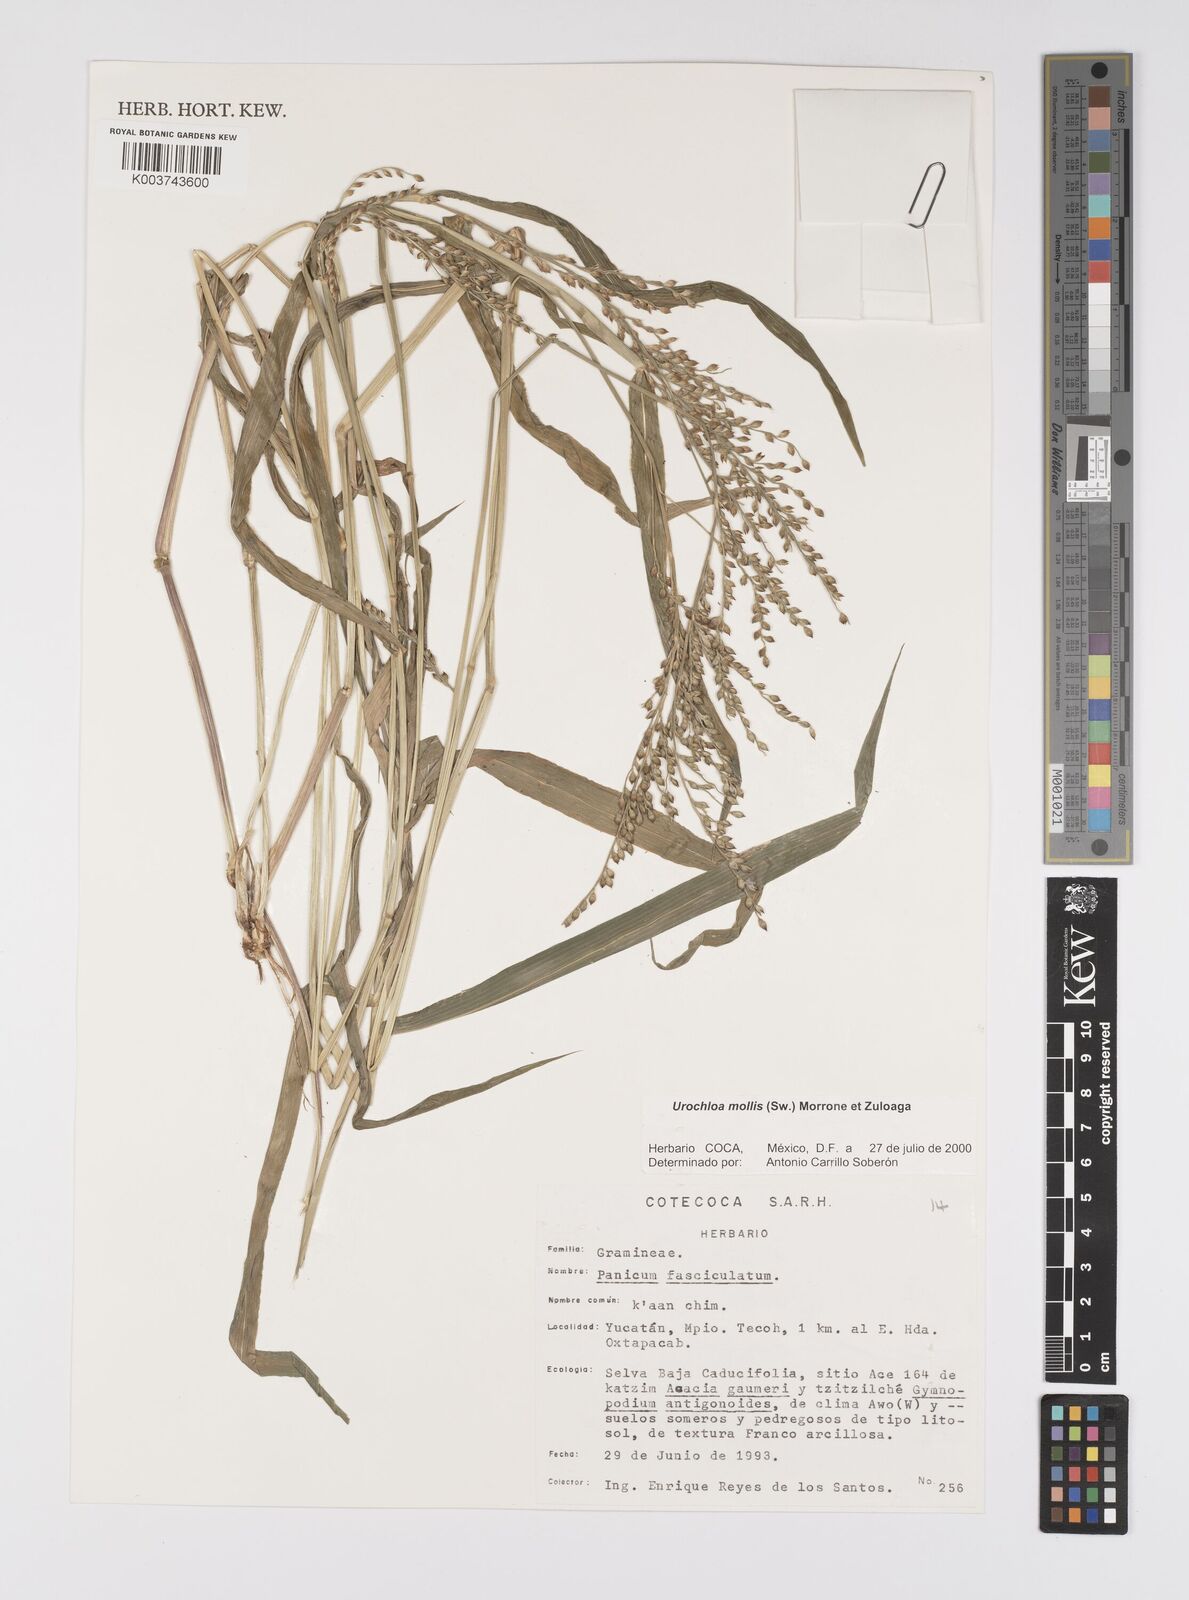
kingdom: Plantae
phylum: Tracheophyta
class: Liliopsida
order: Poales
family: Poaceae
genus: Urochloa
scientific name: Urochloa mollis
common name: Grass
